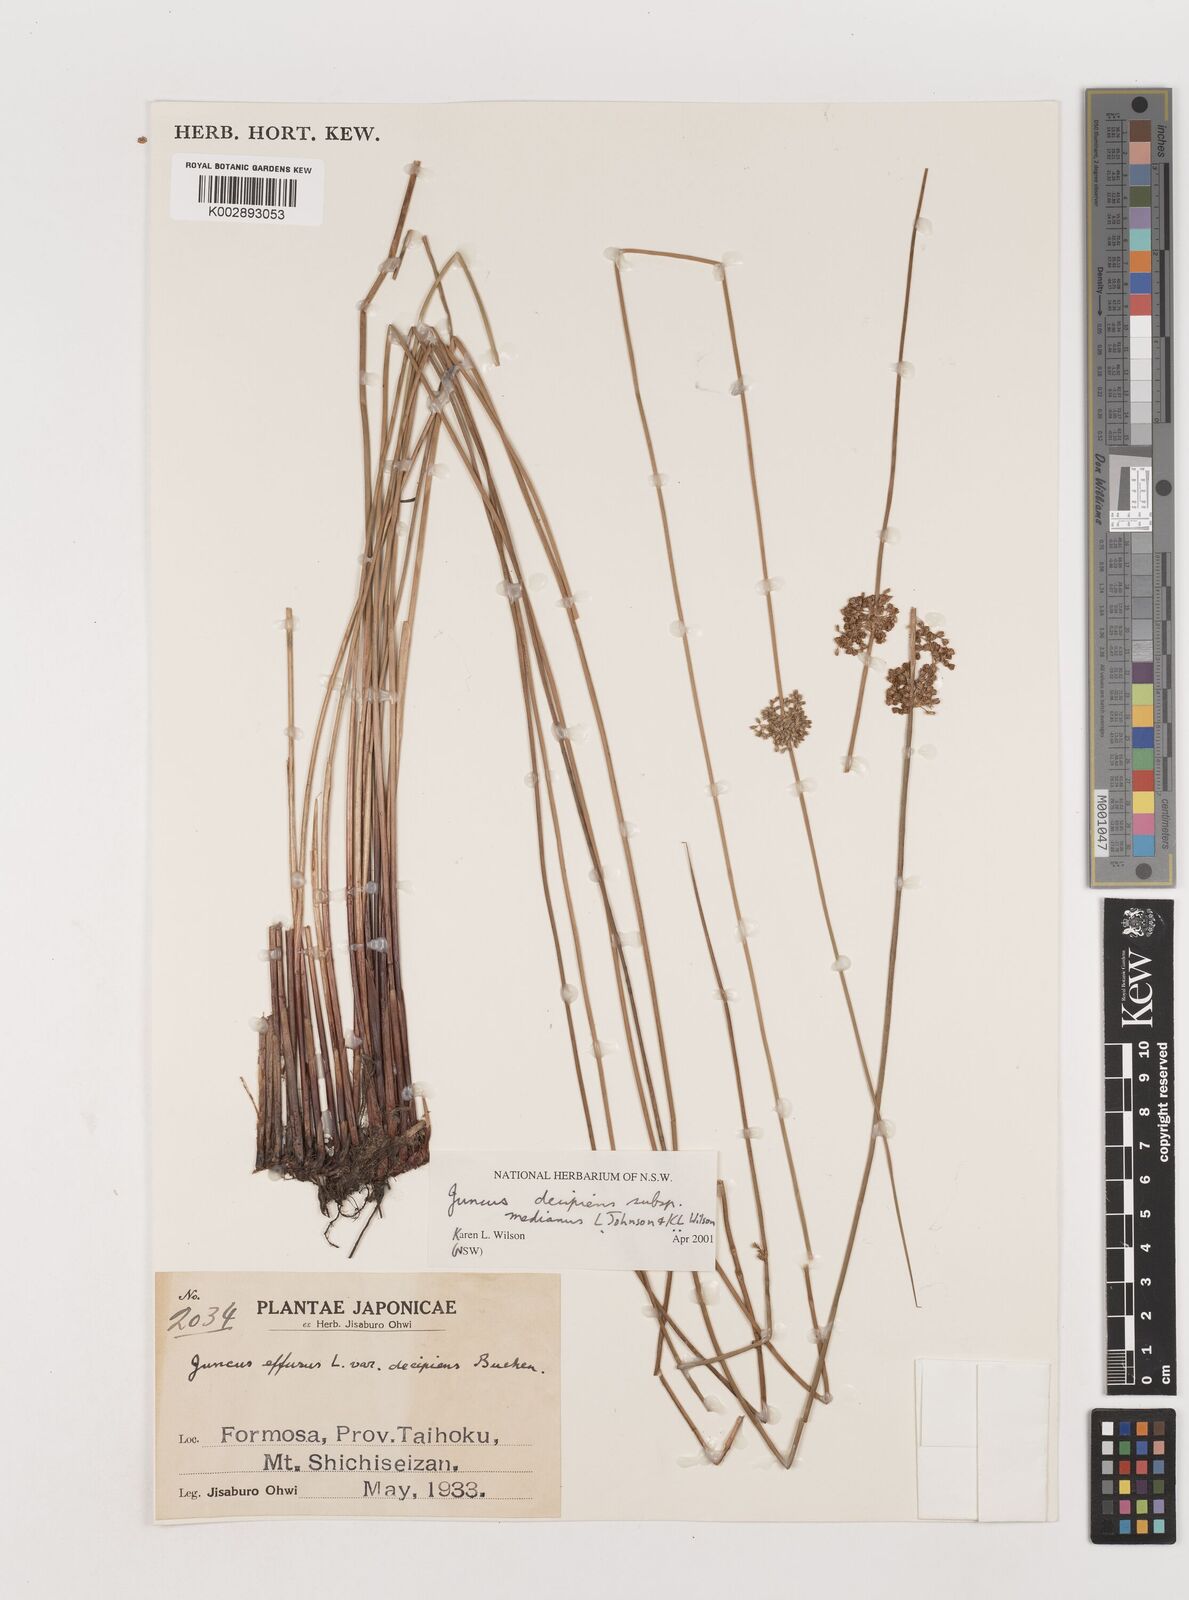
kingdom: Plantae
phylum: Tracheophyta
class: Liliopsida
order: Poales
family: Juncaceae
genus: Juncus
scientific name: Juncus decipiens
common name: Lamp rush
